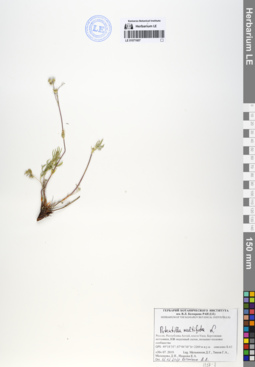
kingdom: Plantae
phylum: Tracheophyta
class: Magnoliopsida
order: Rosales
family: Rosaceae
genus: Potentilla
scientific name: Potentilla multifida
